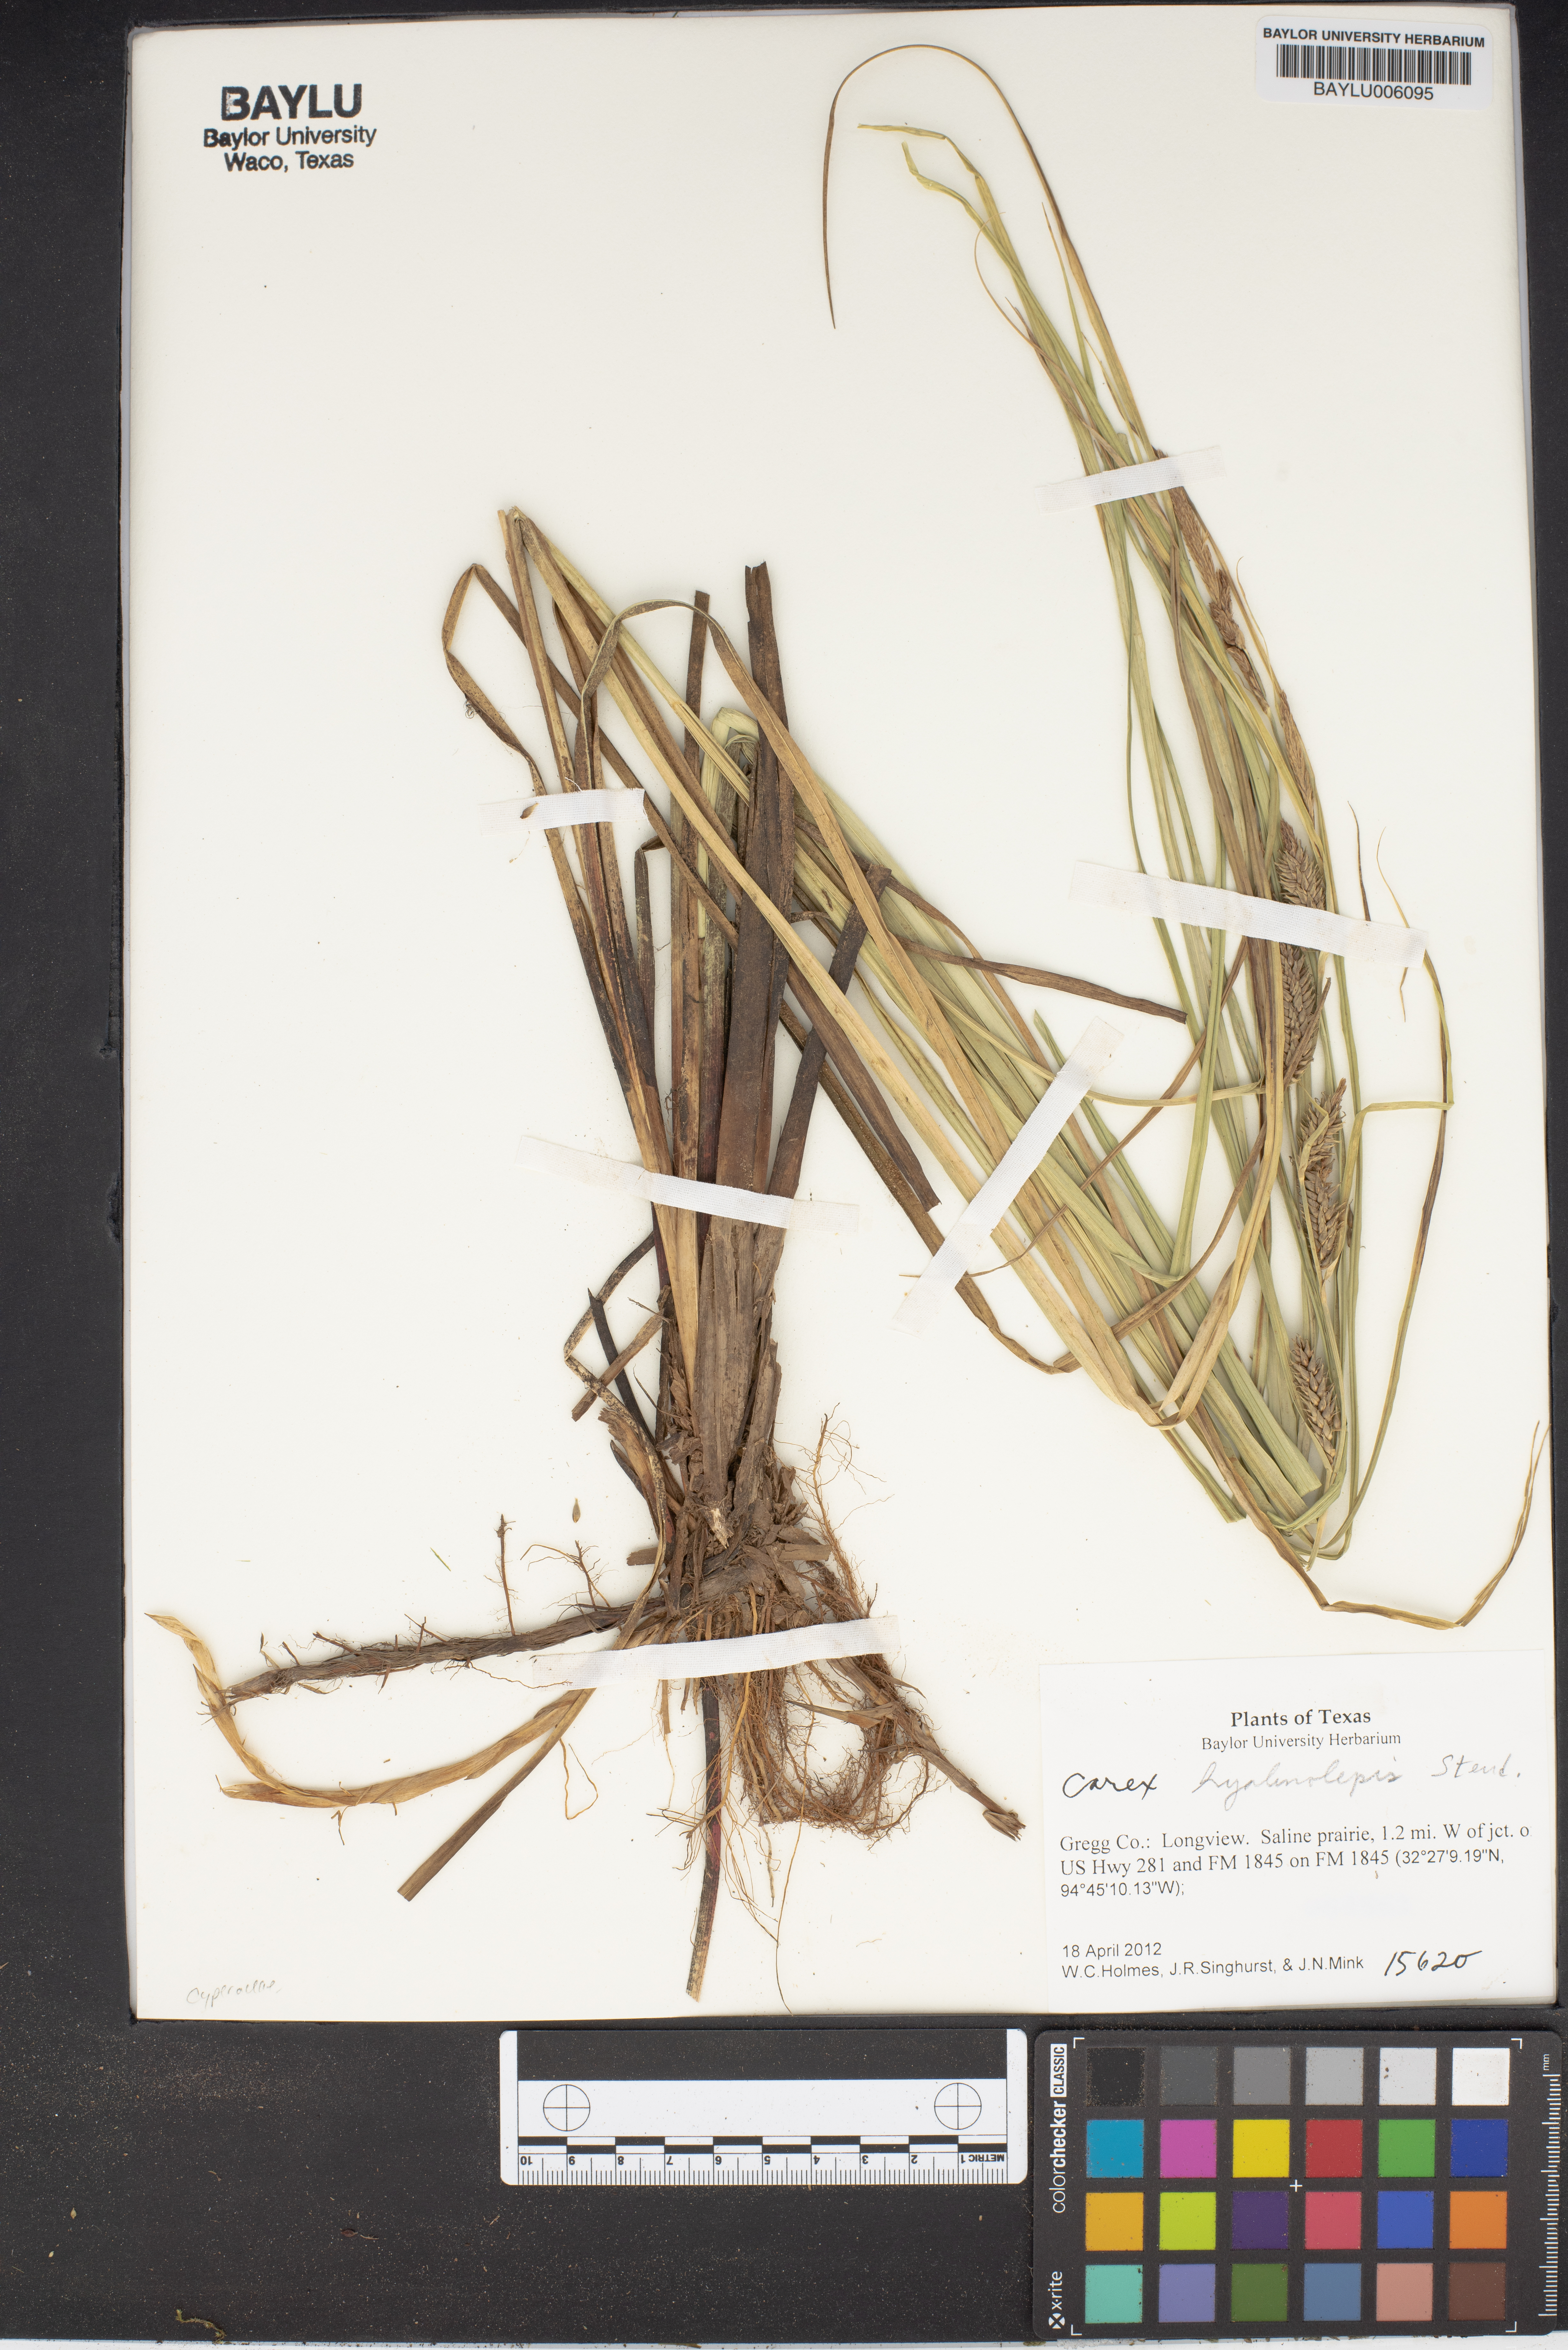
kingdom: Plantae
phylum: Tracheophyta
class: Liliopsida
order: Poales
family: Cyperaceae
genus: Carex
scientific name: Carex hyalinolepis
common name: Shoreline sedge
